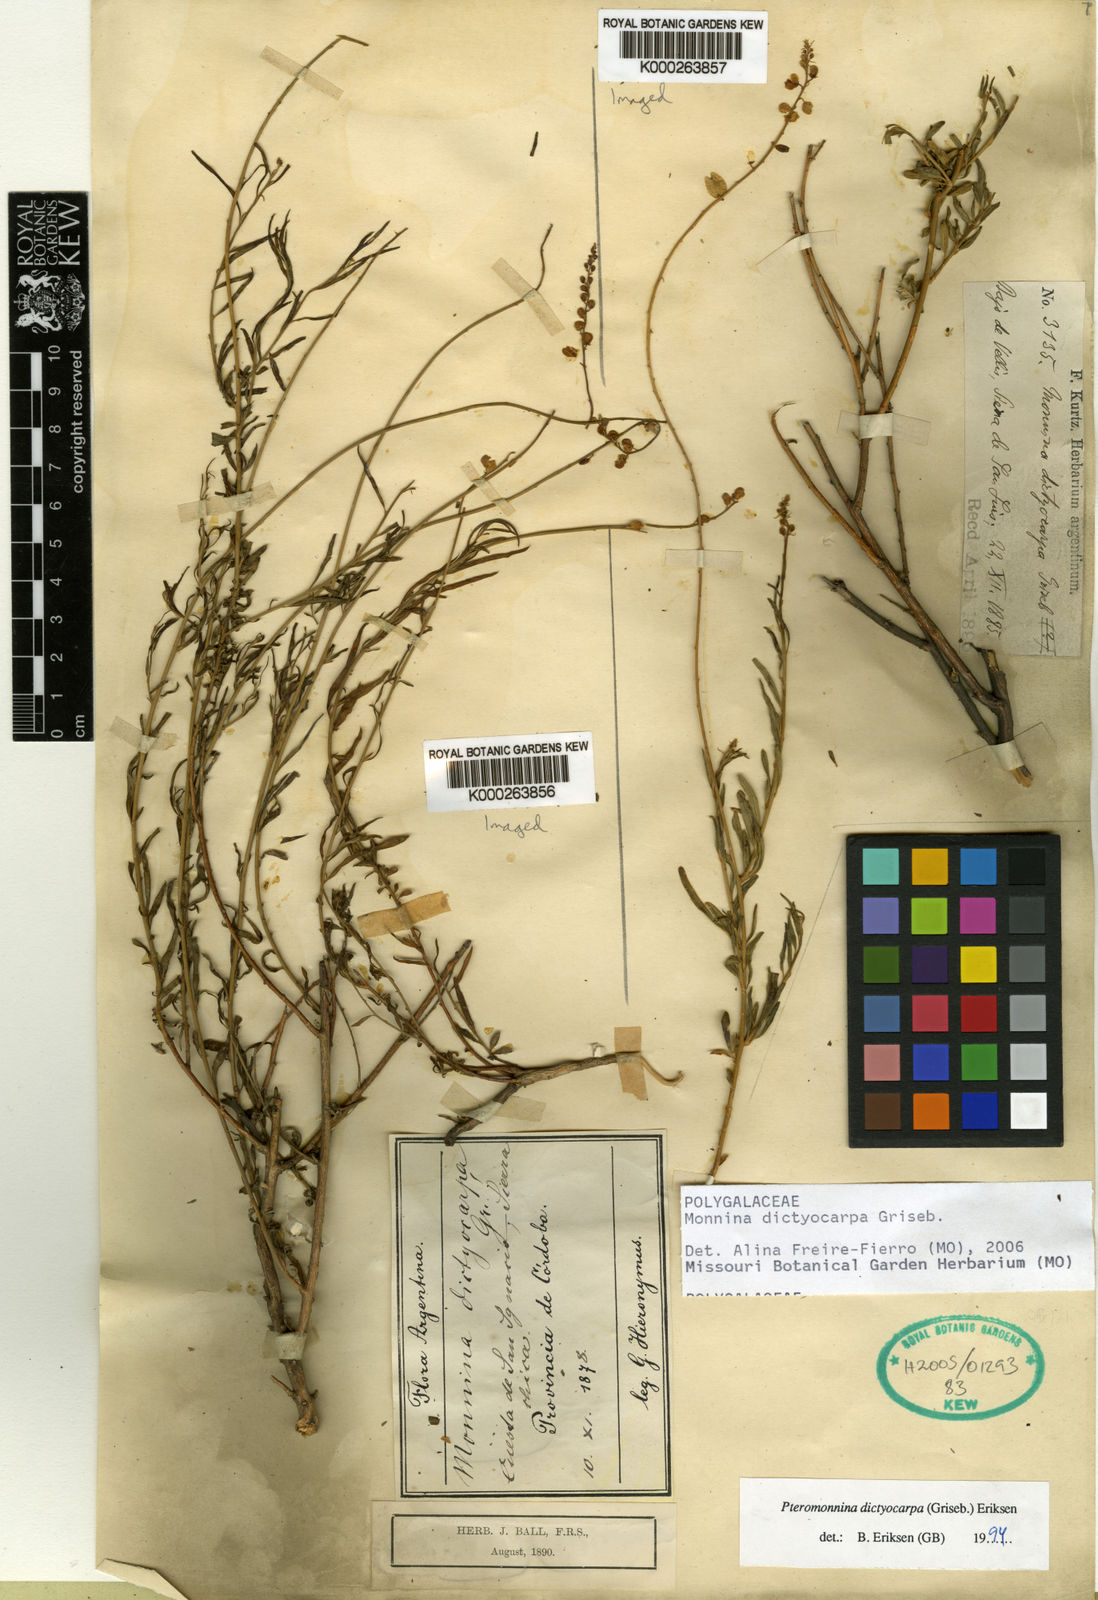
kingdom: Plantae
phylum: Tracheophyta
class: Magnoliopsida
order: Fabales
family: Polygalaceae
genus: Monnina
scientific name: Monnina
